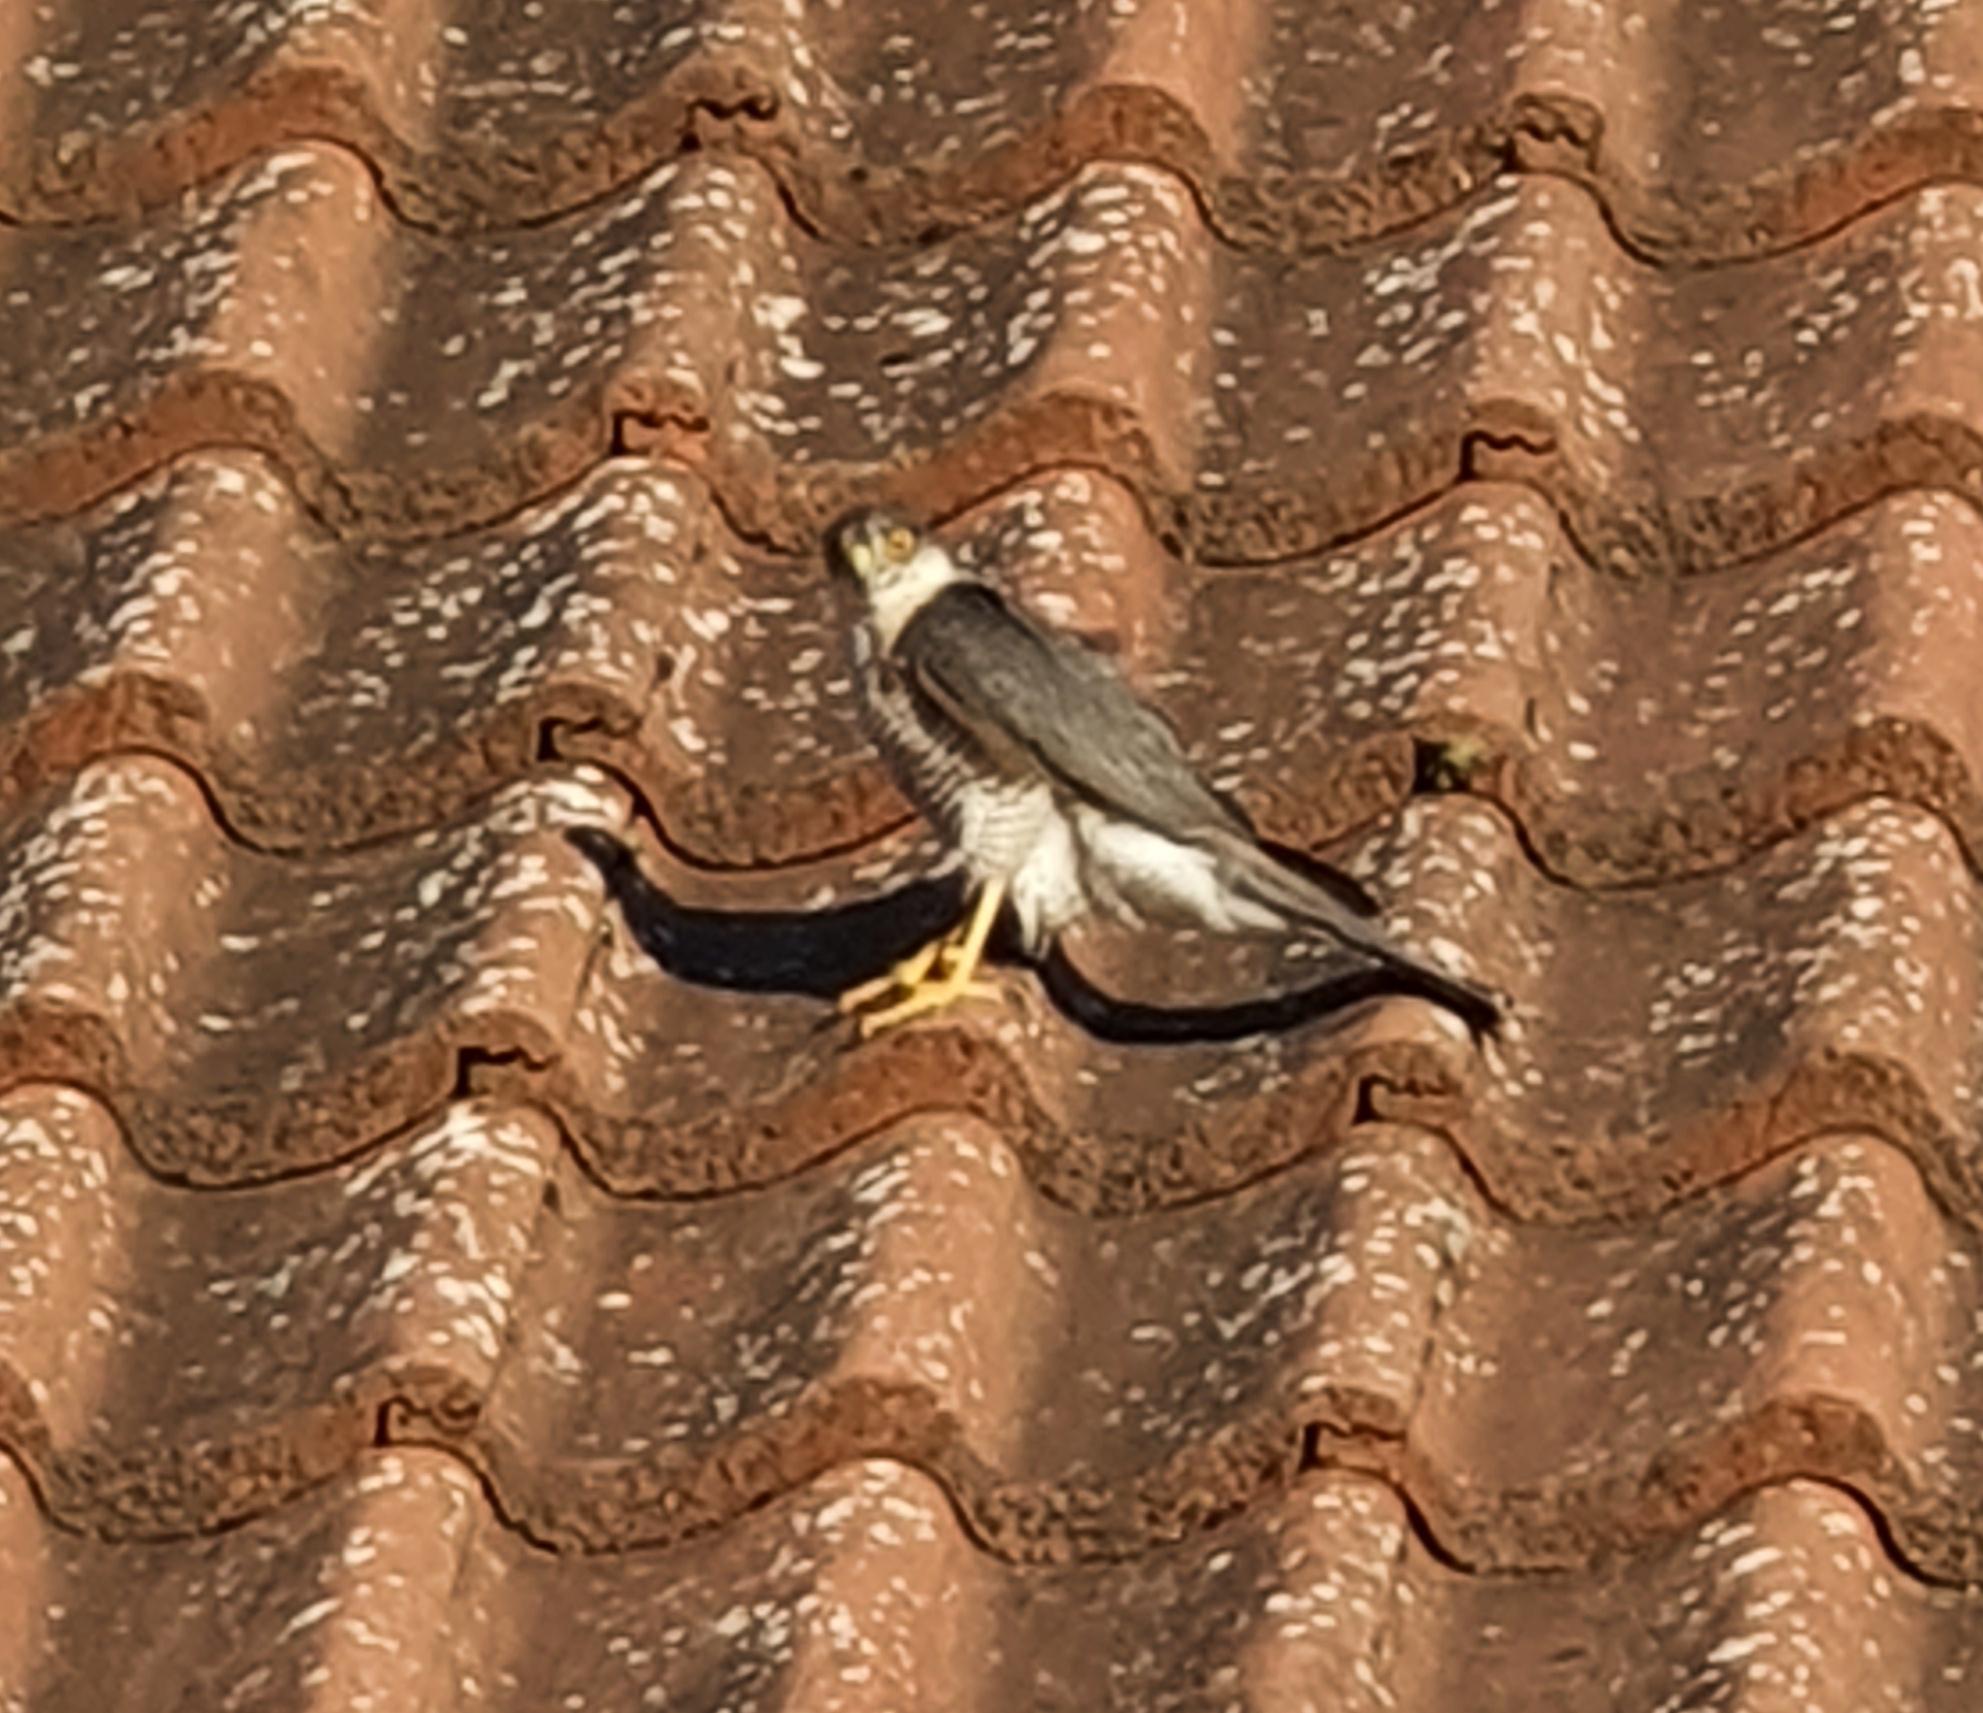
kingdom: Animalia
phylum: Chordata
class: Aves
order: Accipitriformes
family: Accipitridae
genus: Accipiter
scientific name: Accipiter nisus
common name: Spurvehøg
